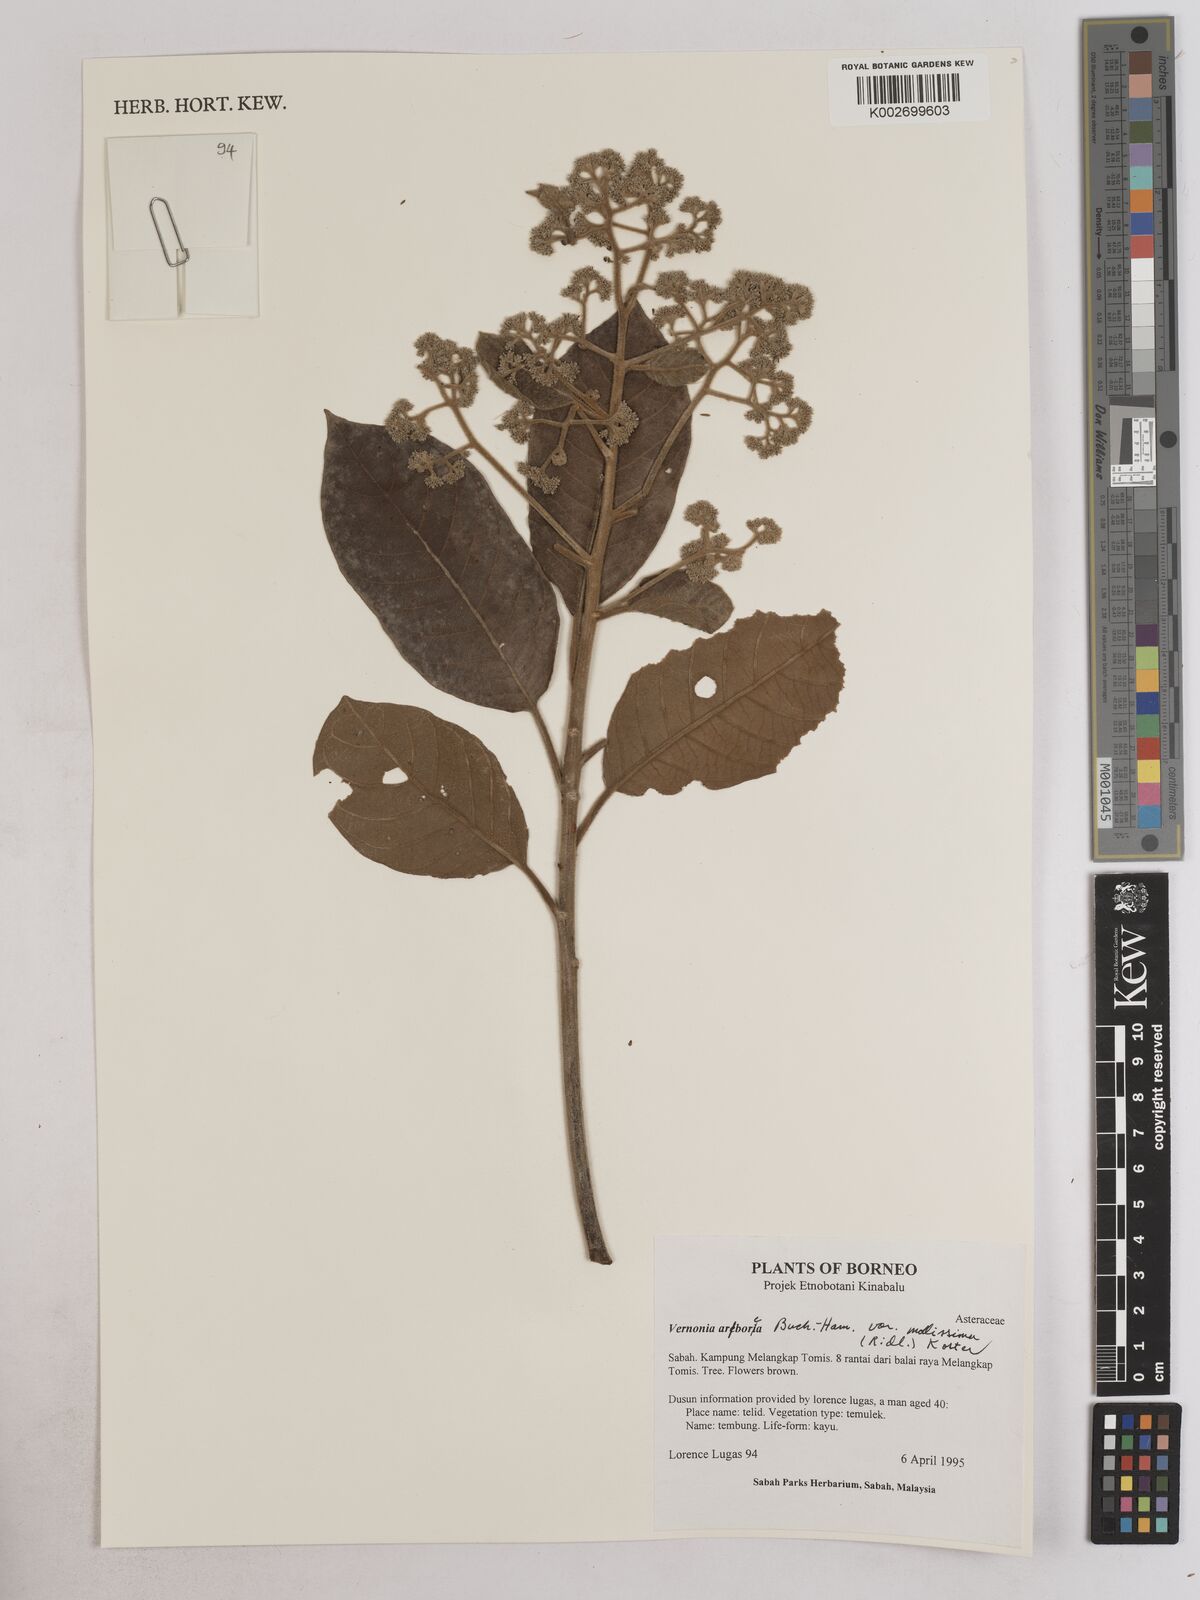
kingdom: Plantae
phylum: Tracheophyta
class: Magnoliopsida
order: Asterales
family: Asteraceae
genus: Strobocalyx
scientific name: Strobocalyx arborea
